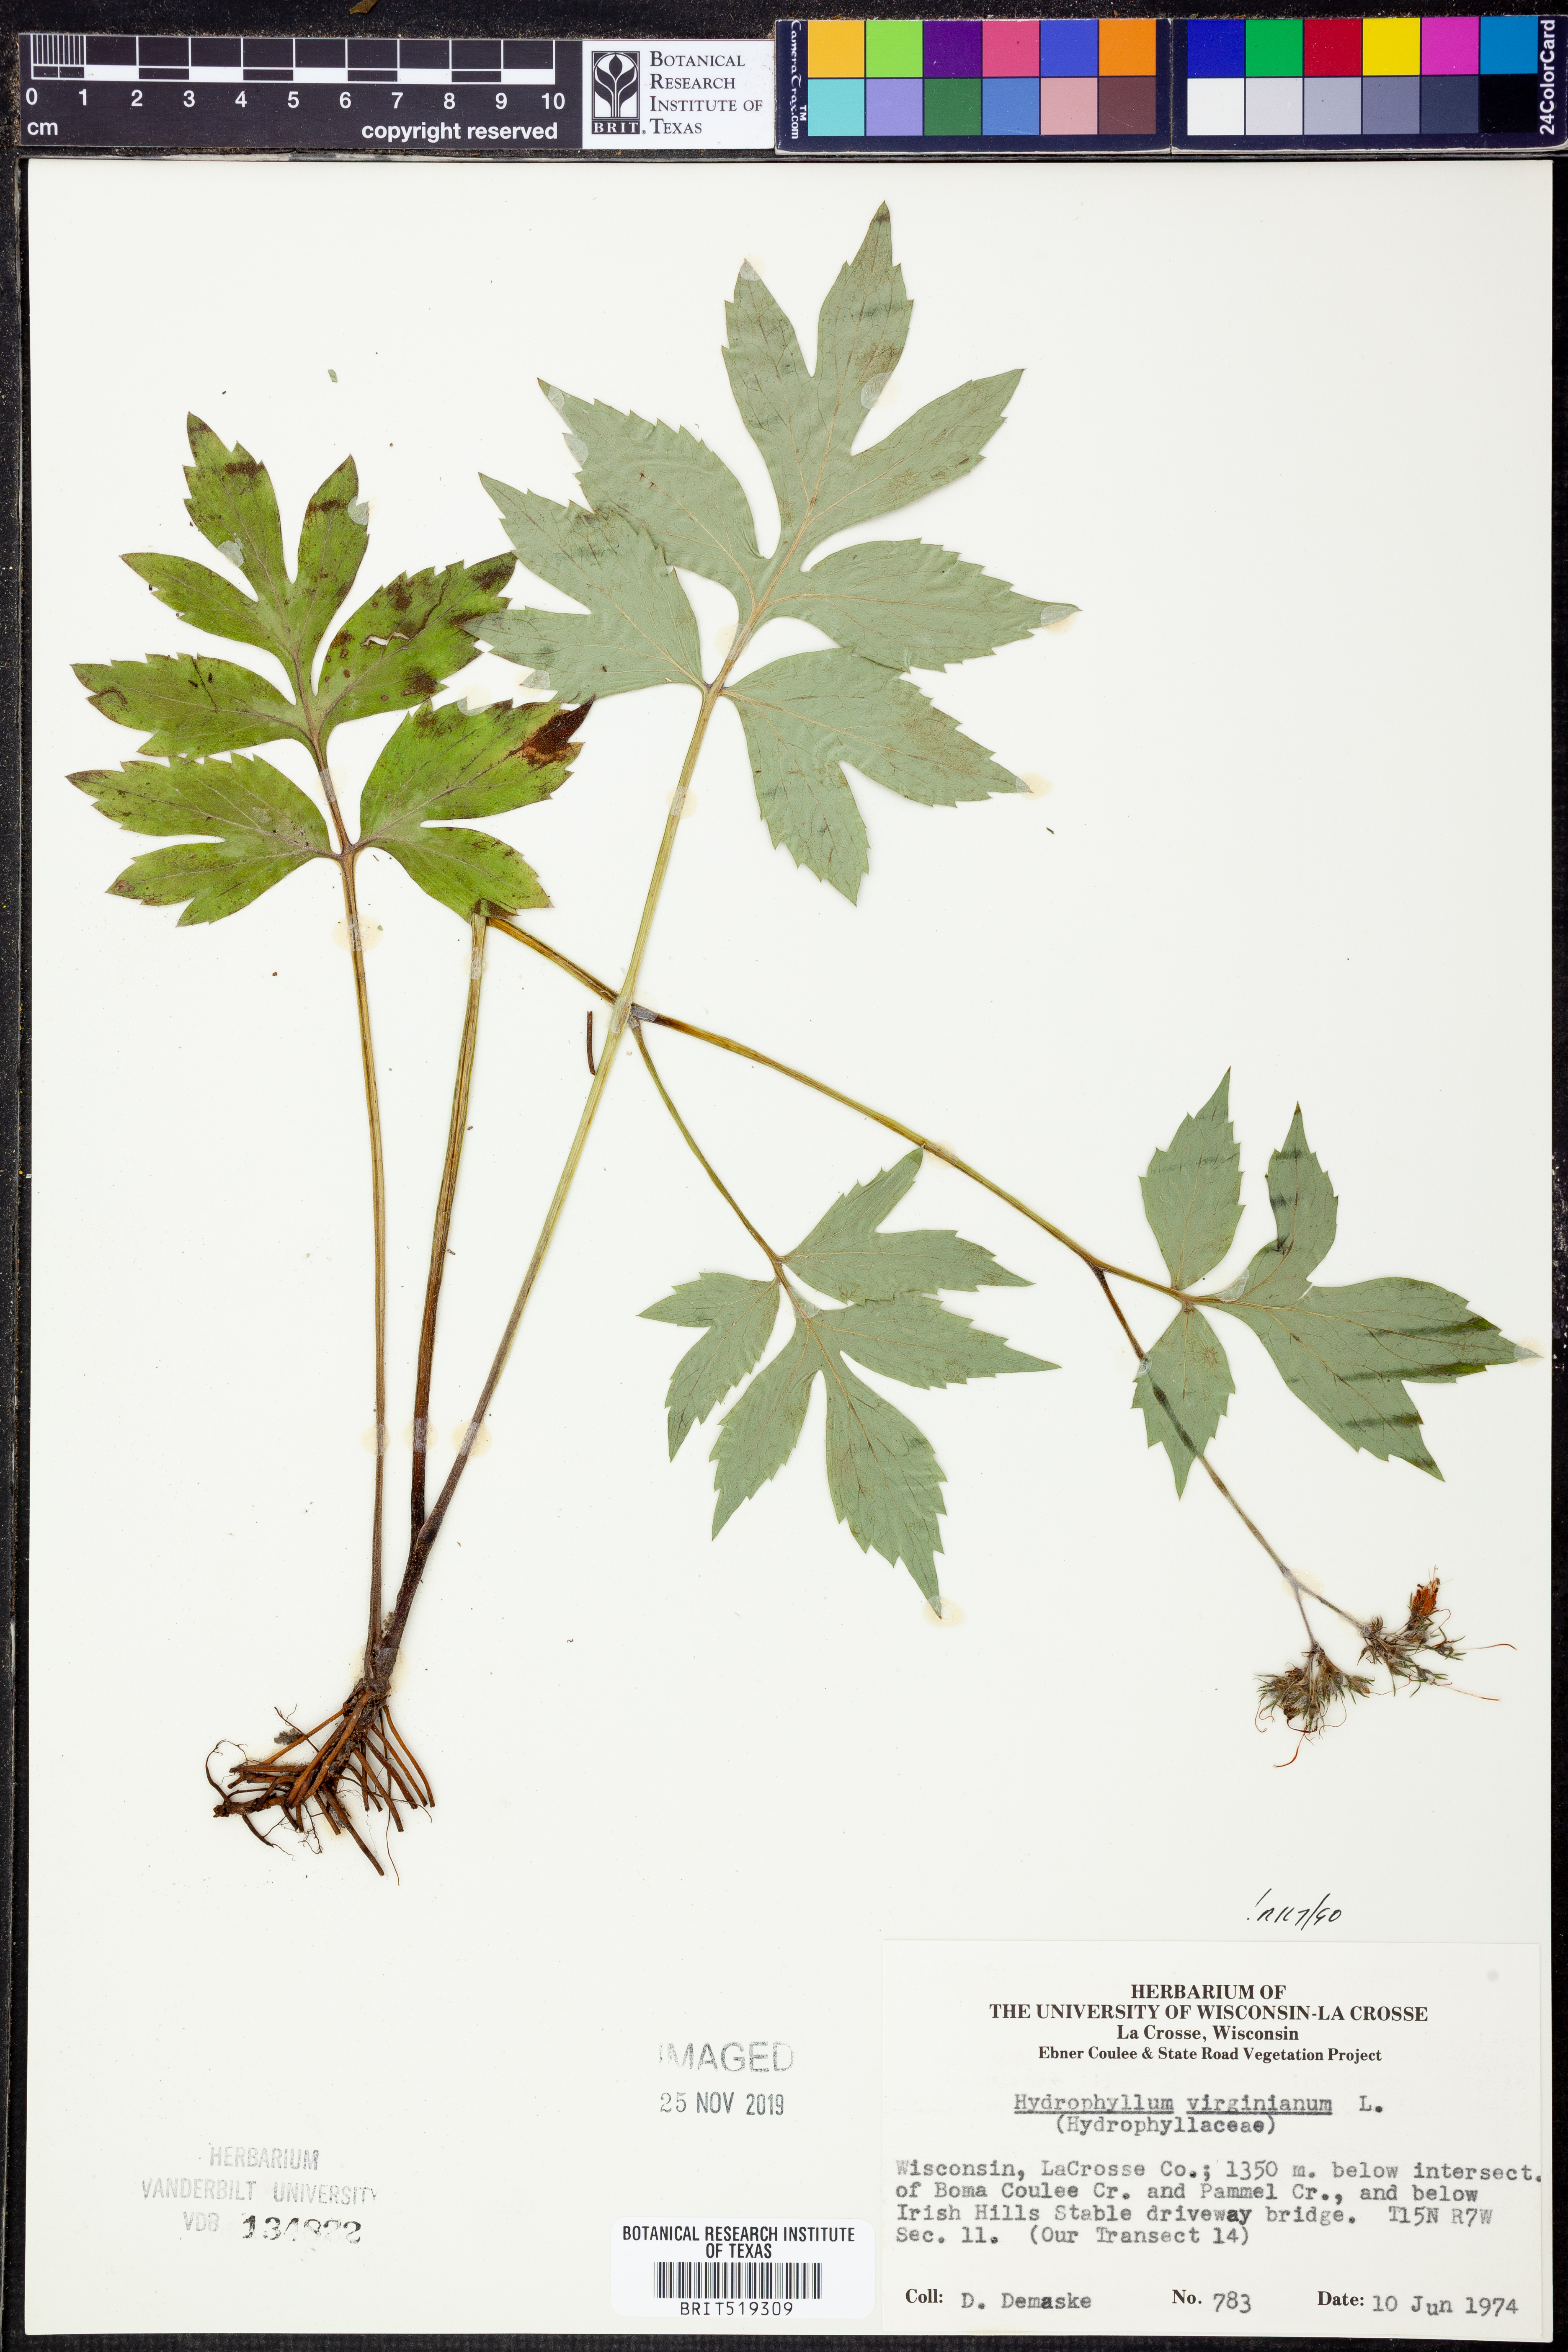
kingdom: Plantae
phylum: Tracheophyta
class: Magnoliopsida
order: Boraginales
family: Hydrophyllaceae
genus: Hydrophyllum
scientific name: Hydrophyllum virginianum
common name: Virginia waterleaf
